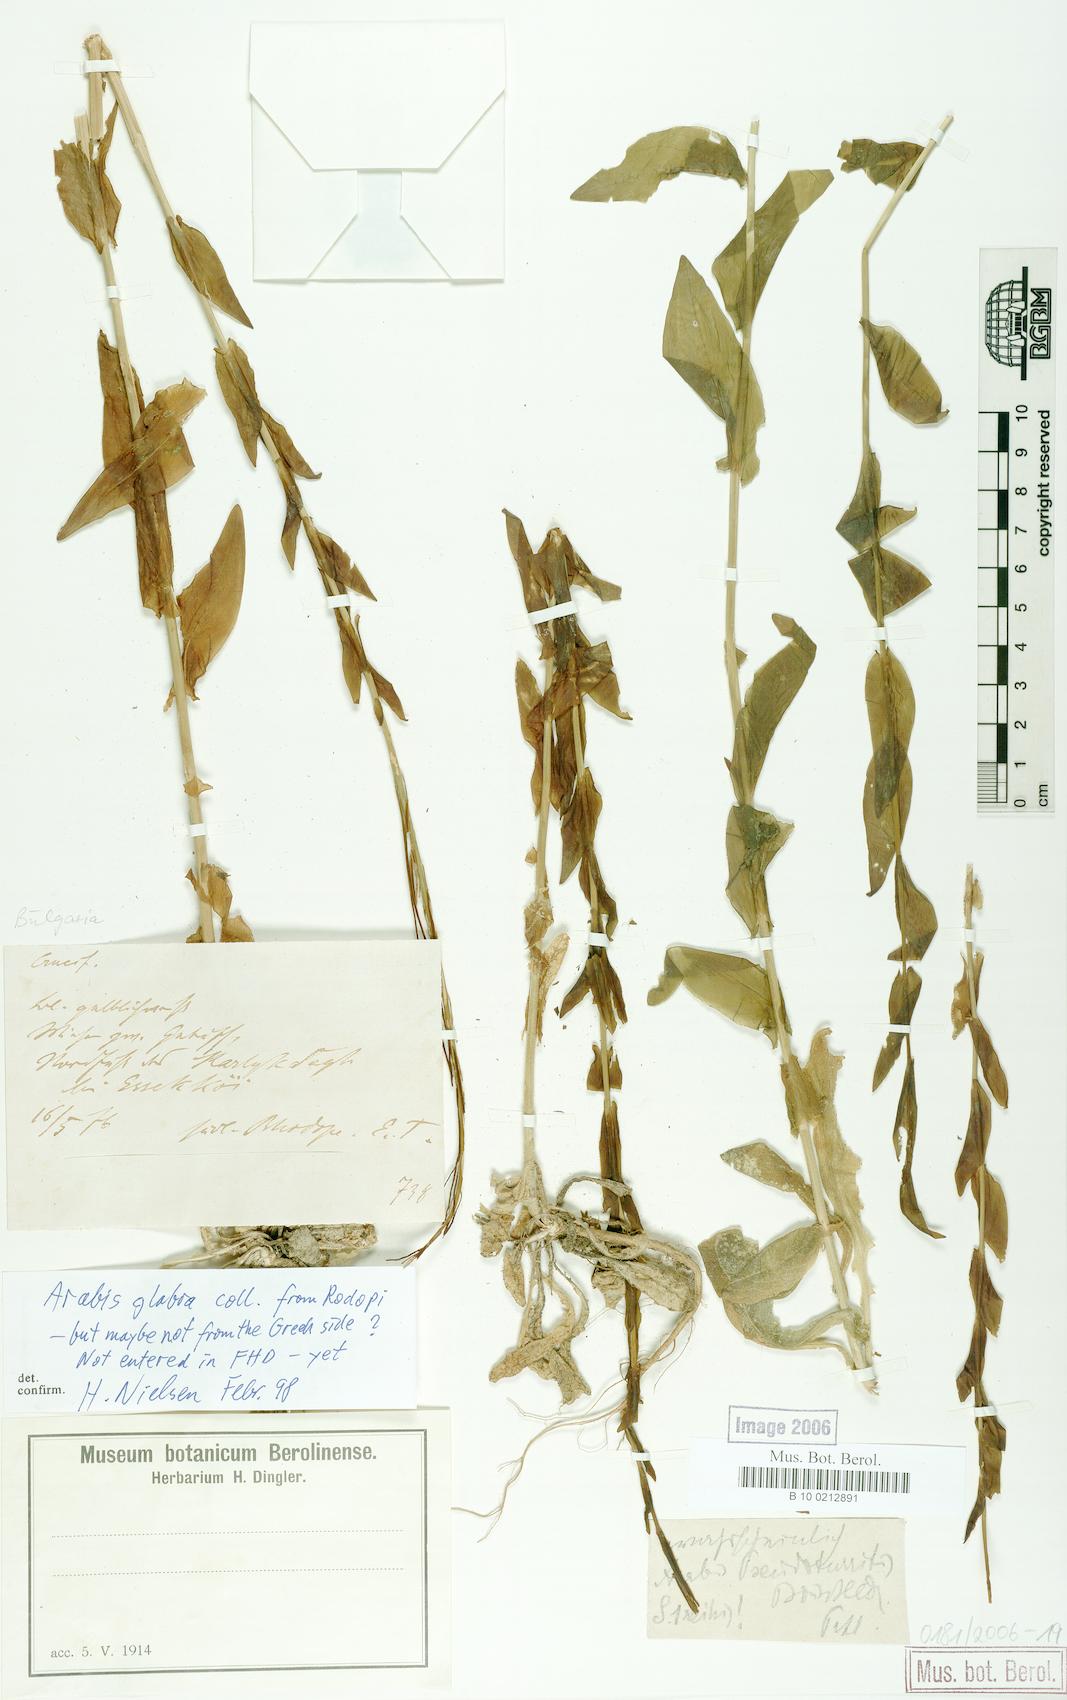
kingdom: Plantae
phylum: Tracheophyta
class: Magnoliopsida
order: Brassicales
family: Brassicaceae
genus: Turritis
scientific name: Turritis glabra
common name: Tower rockcress
